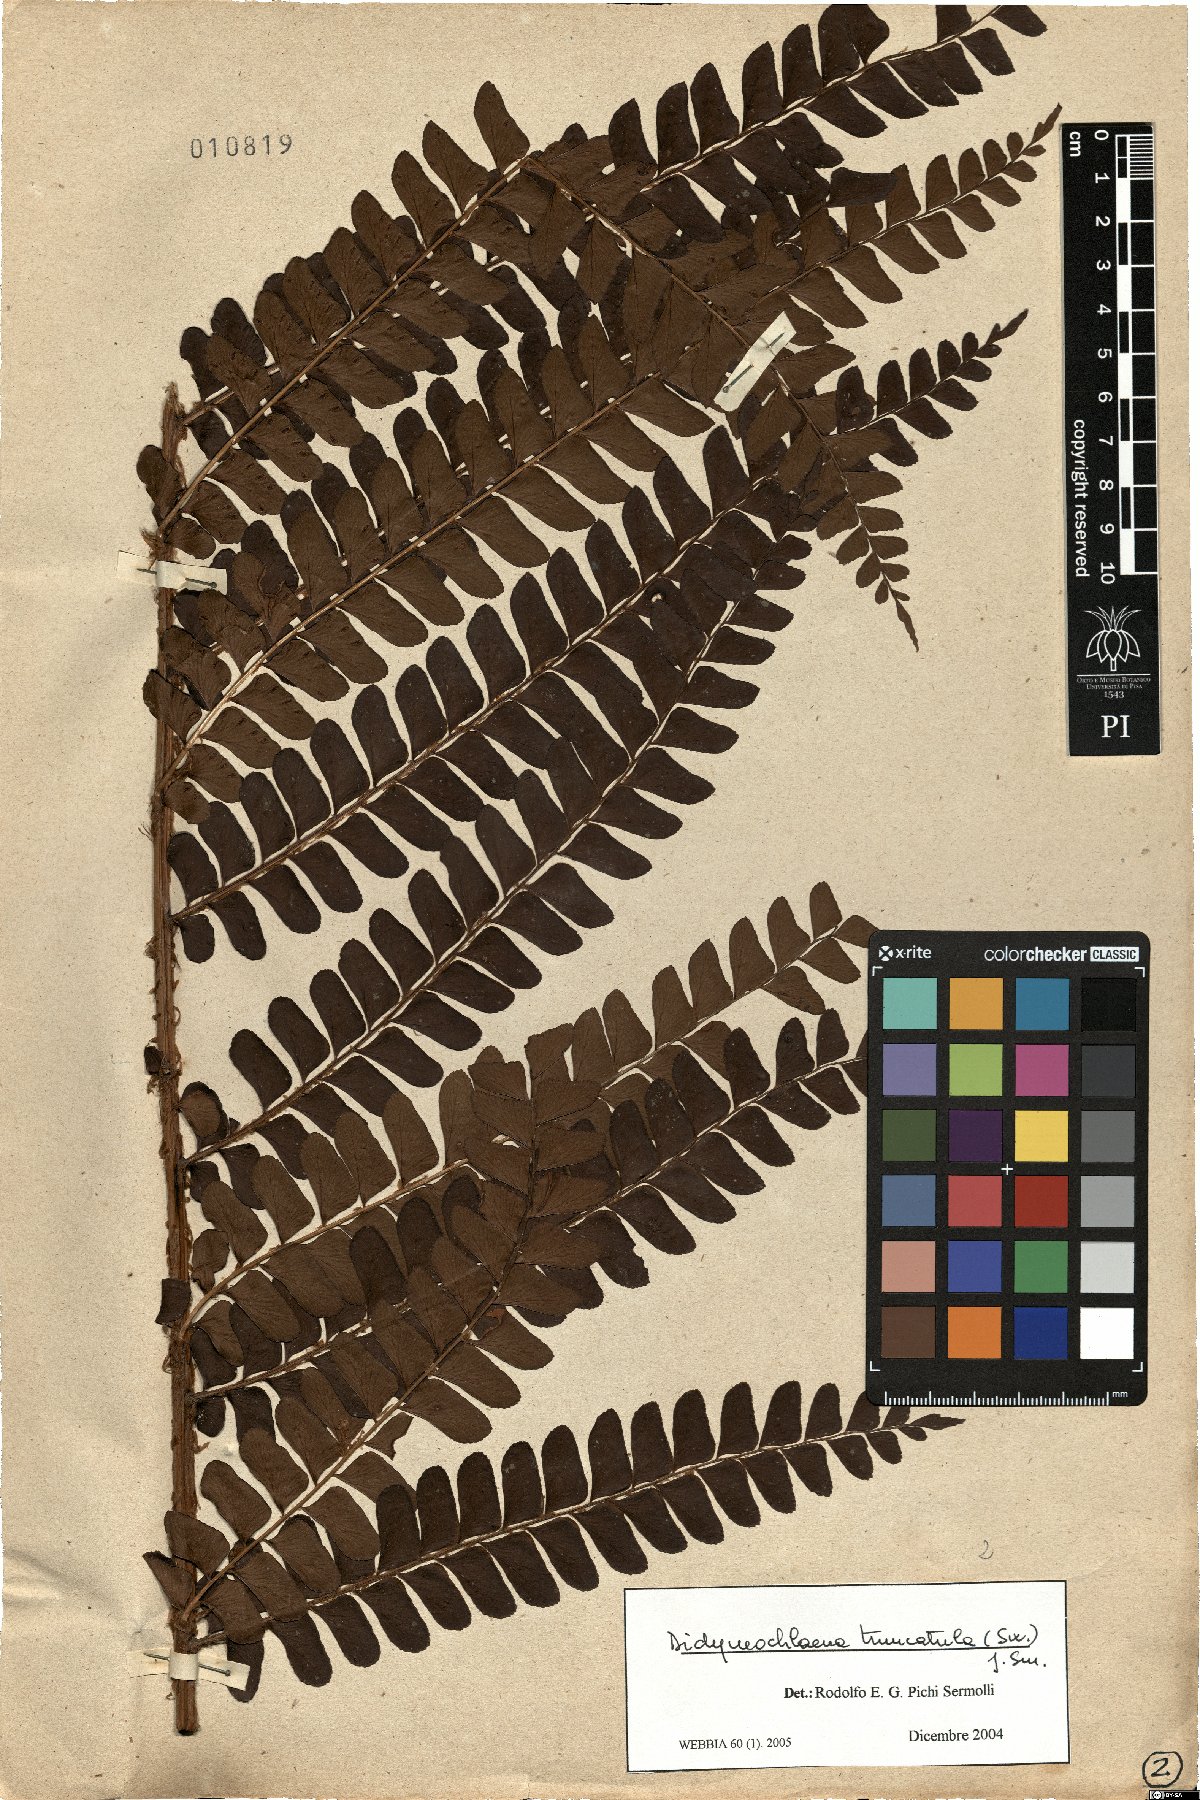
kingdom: Plantae
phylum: Tracheophyta
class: Polypodiopsida
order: Polypodiales
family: Didymochlaenaceae
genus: Didymochlaena
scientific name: Didymochlaena truncatula
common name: Mahogany fern
